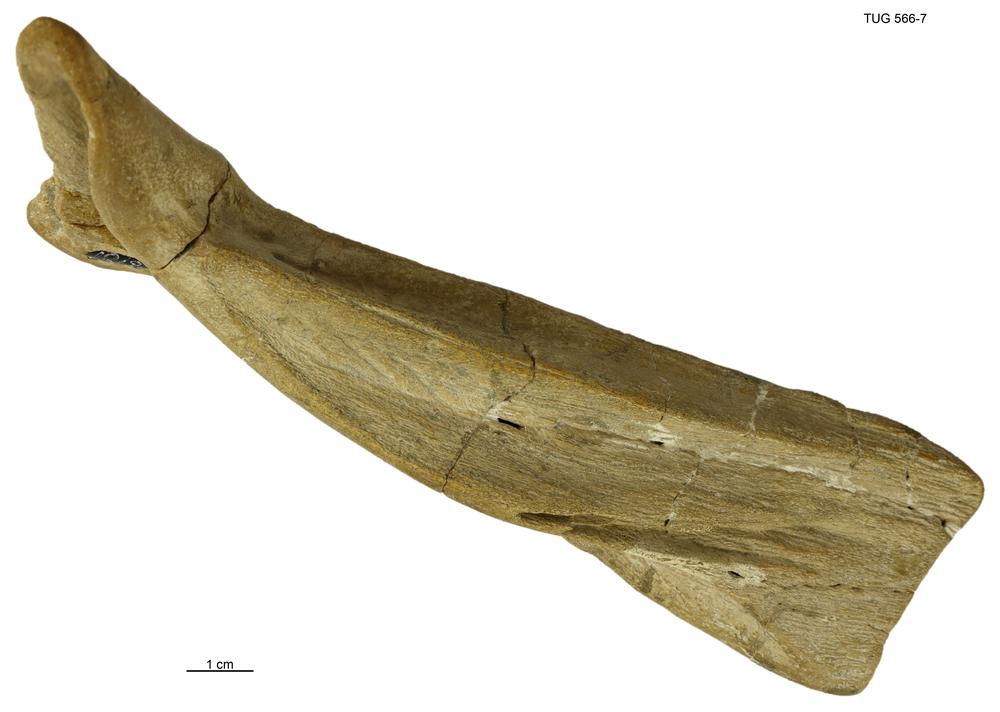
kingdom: Animalia
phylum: Chordata
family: Homostiidae
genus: Homostius
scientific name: Homostius
